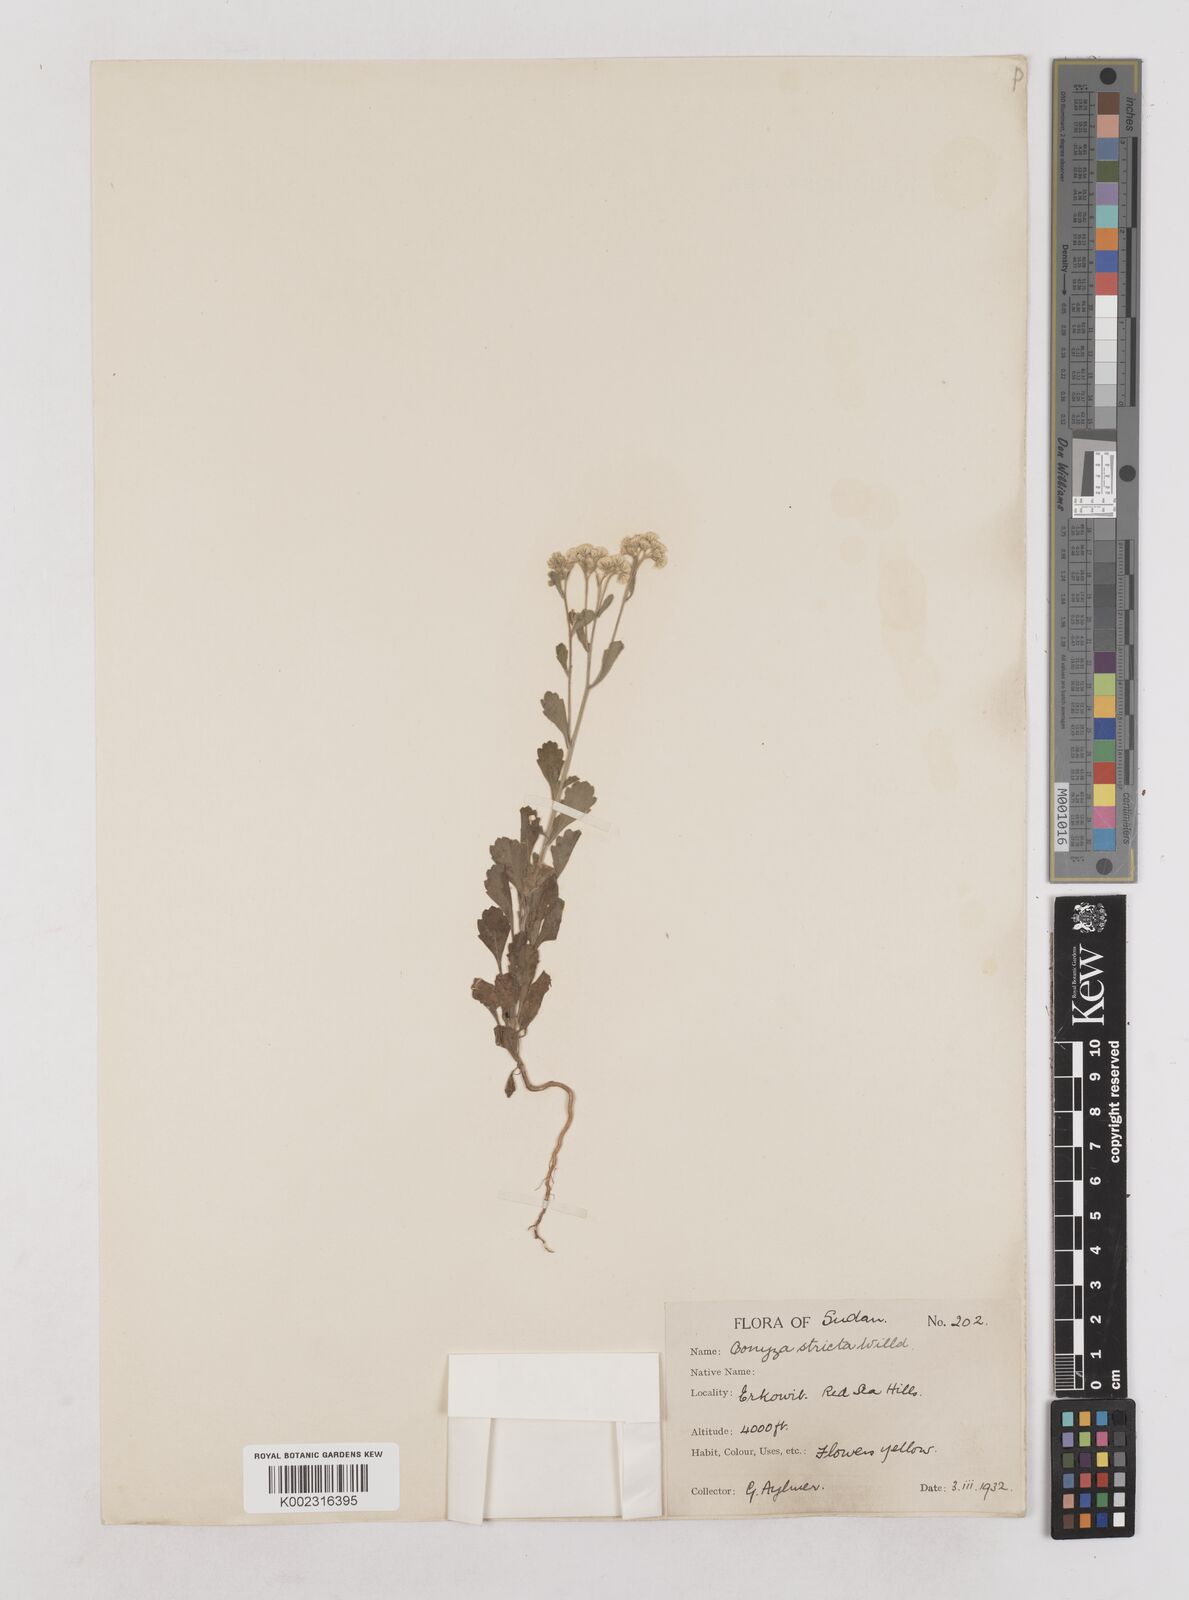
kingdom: Plantae
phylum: Tracheophyta
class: Magnoliopsida
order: Asterales
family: Asteraceae
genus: Nidorella
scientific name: Nidorella triloba
